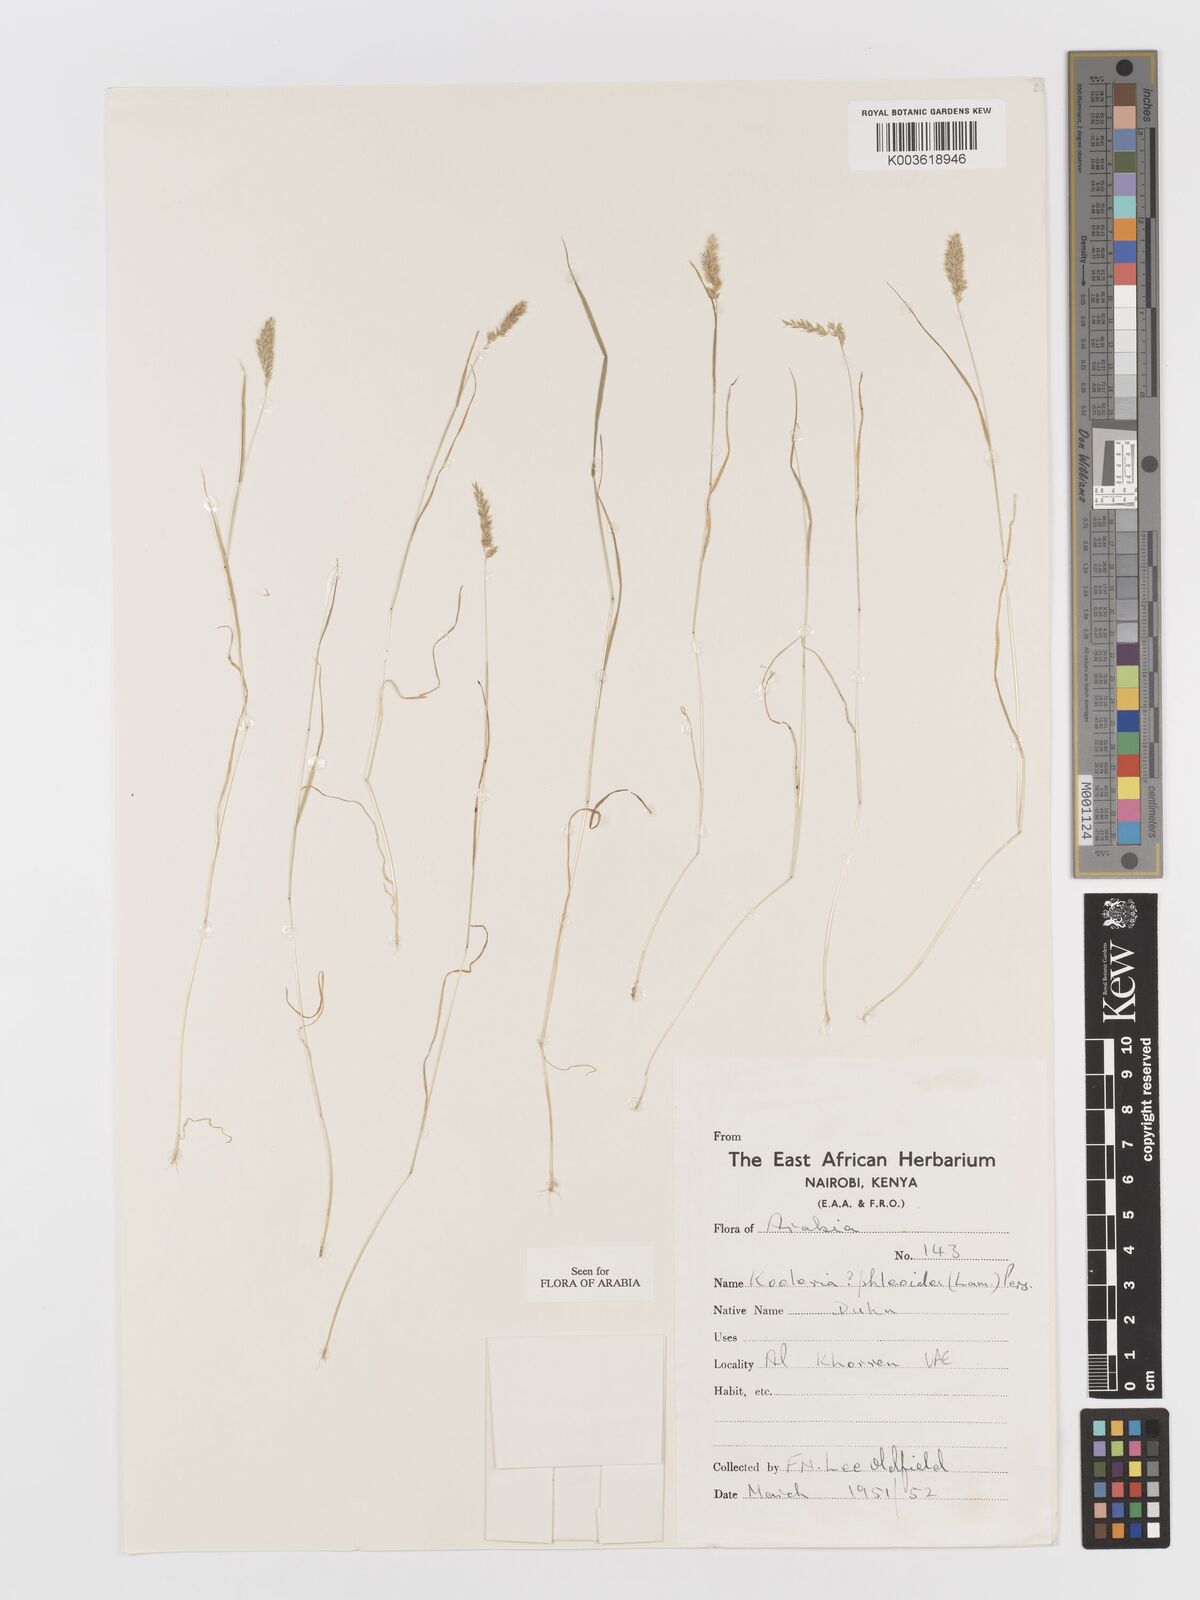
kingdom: Plantae
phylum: Tracheophyta
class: Liliopsida
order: Poales
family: Poaceae
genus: Rostraria
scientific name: Rostraria cristata
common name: Mediterranean hair-grass
